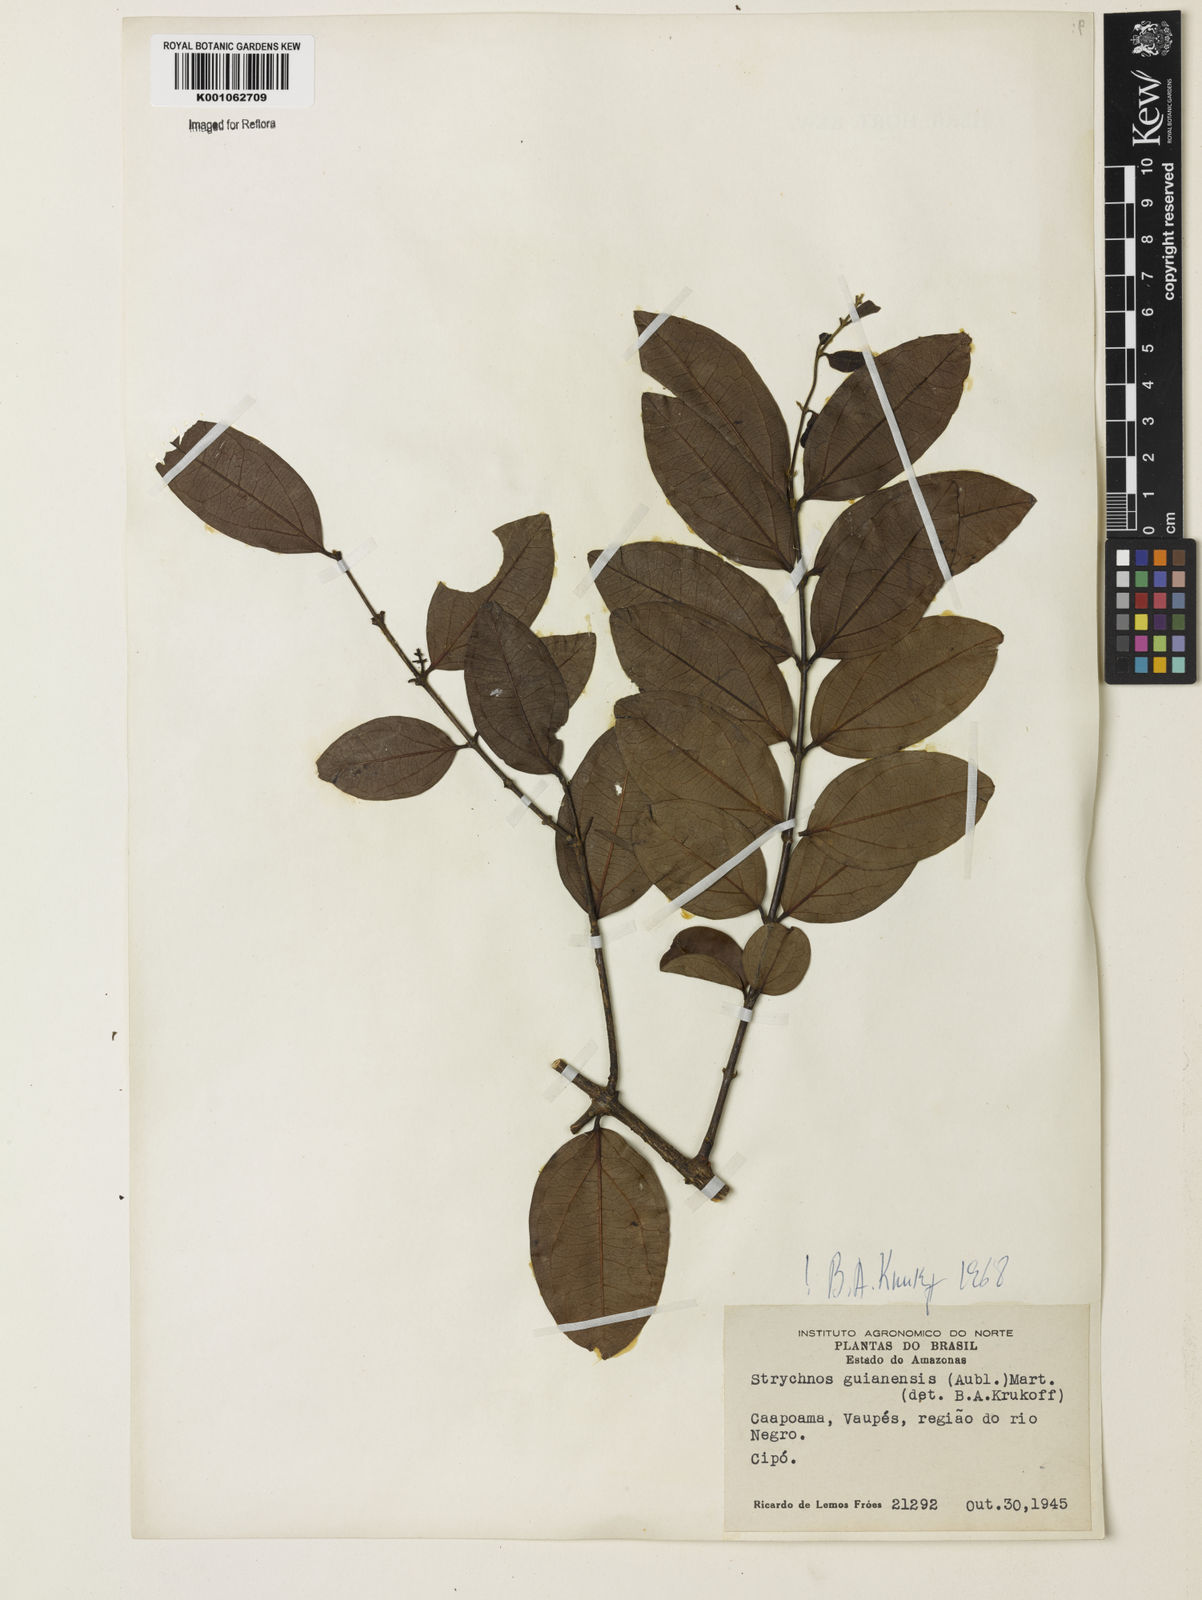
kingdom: Plantae
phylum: Tracheophyta
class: Magnoliopsida
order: Gentianales
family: Loganiaceae
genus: Strychnos
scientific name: Strychnos guianensis
